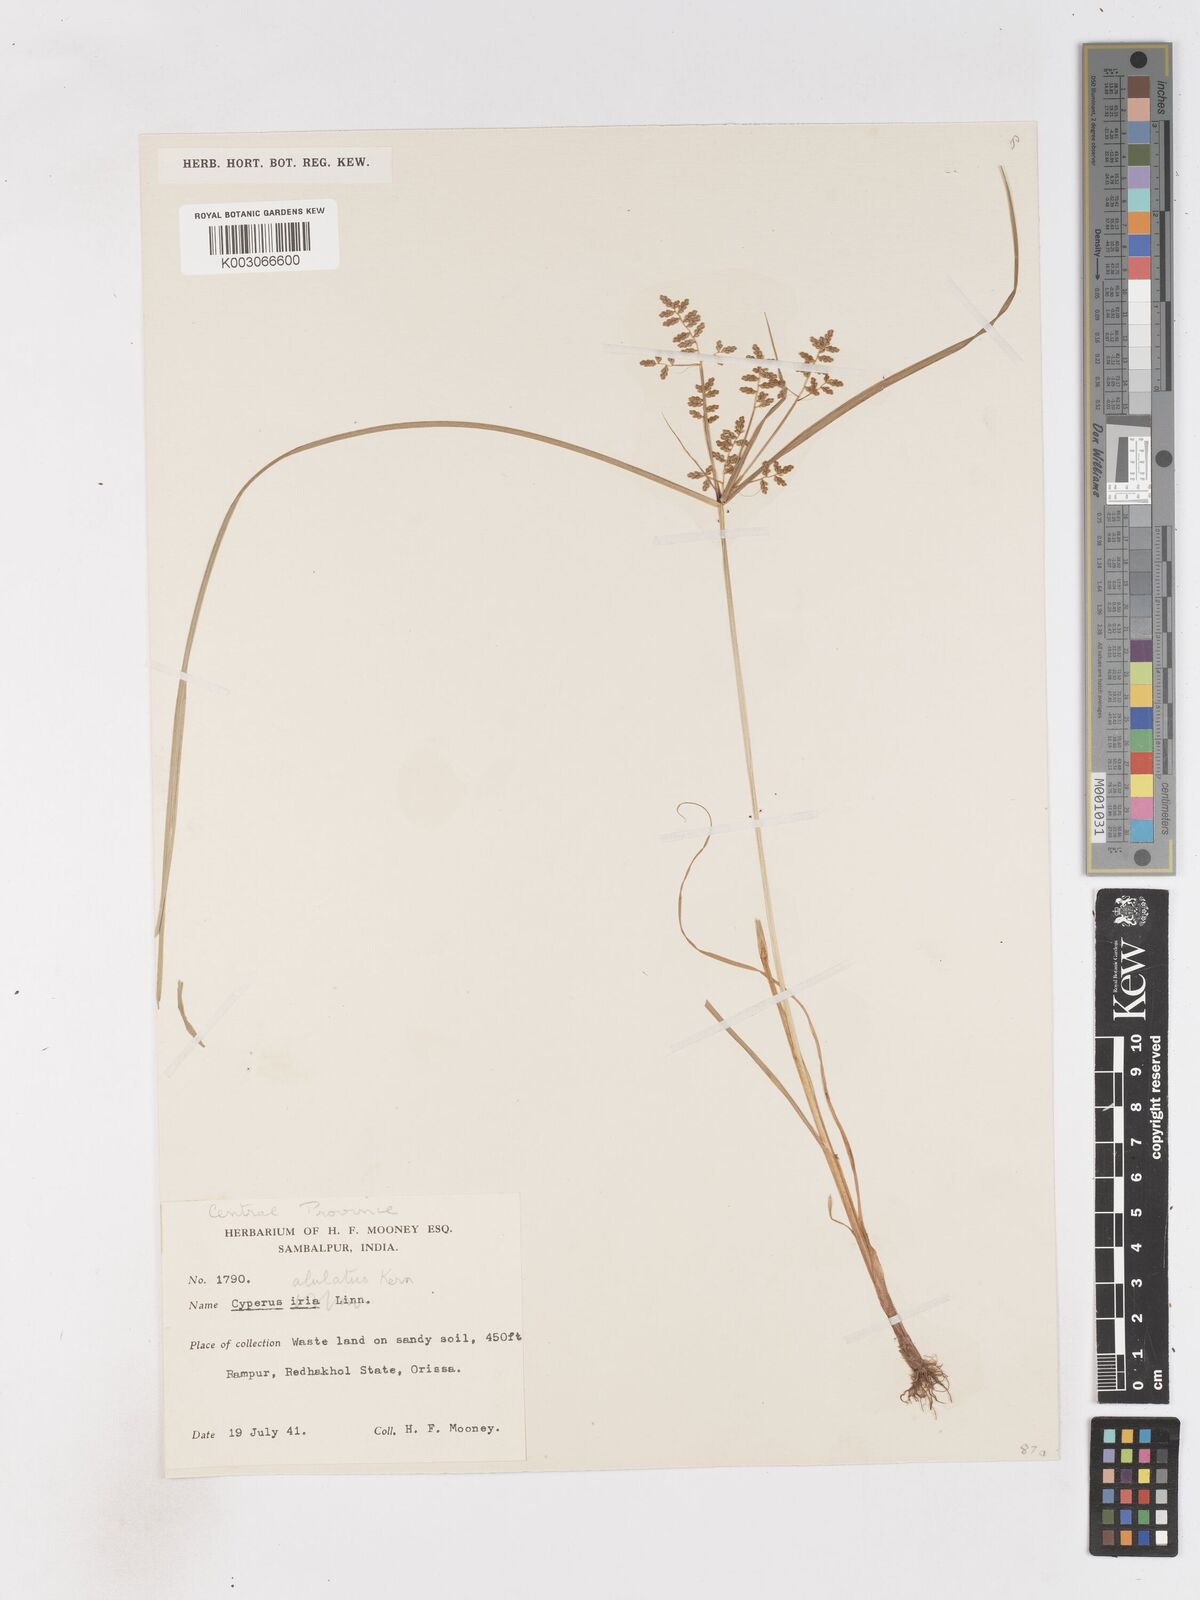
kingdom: Plantae
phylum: Tracheophyta
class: Liliopsida
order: Poales
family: Cyperaceae
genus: Cyperus
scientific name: Cyperus alulatus
